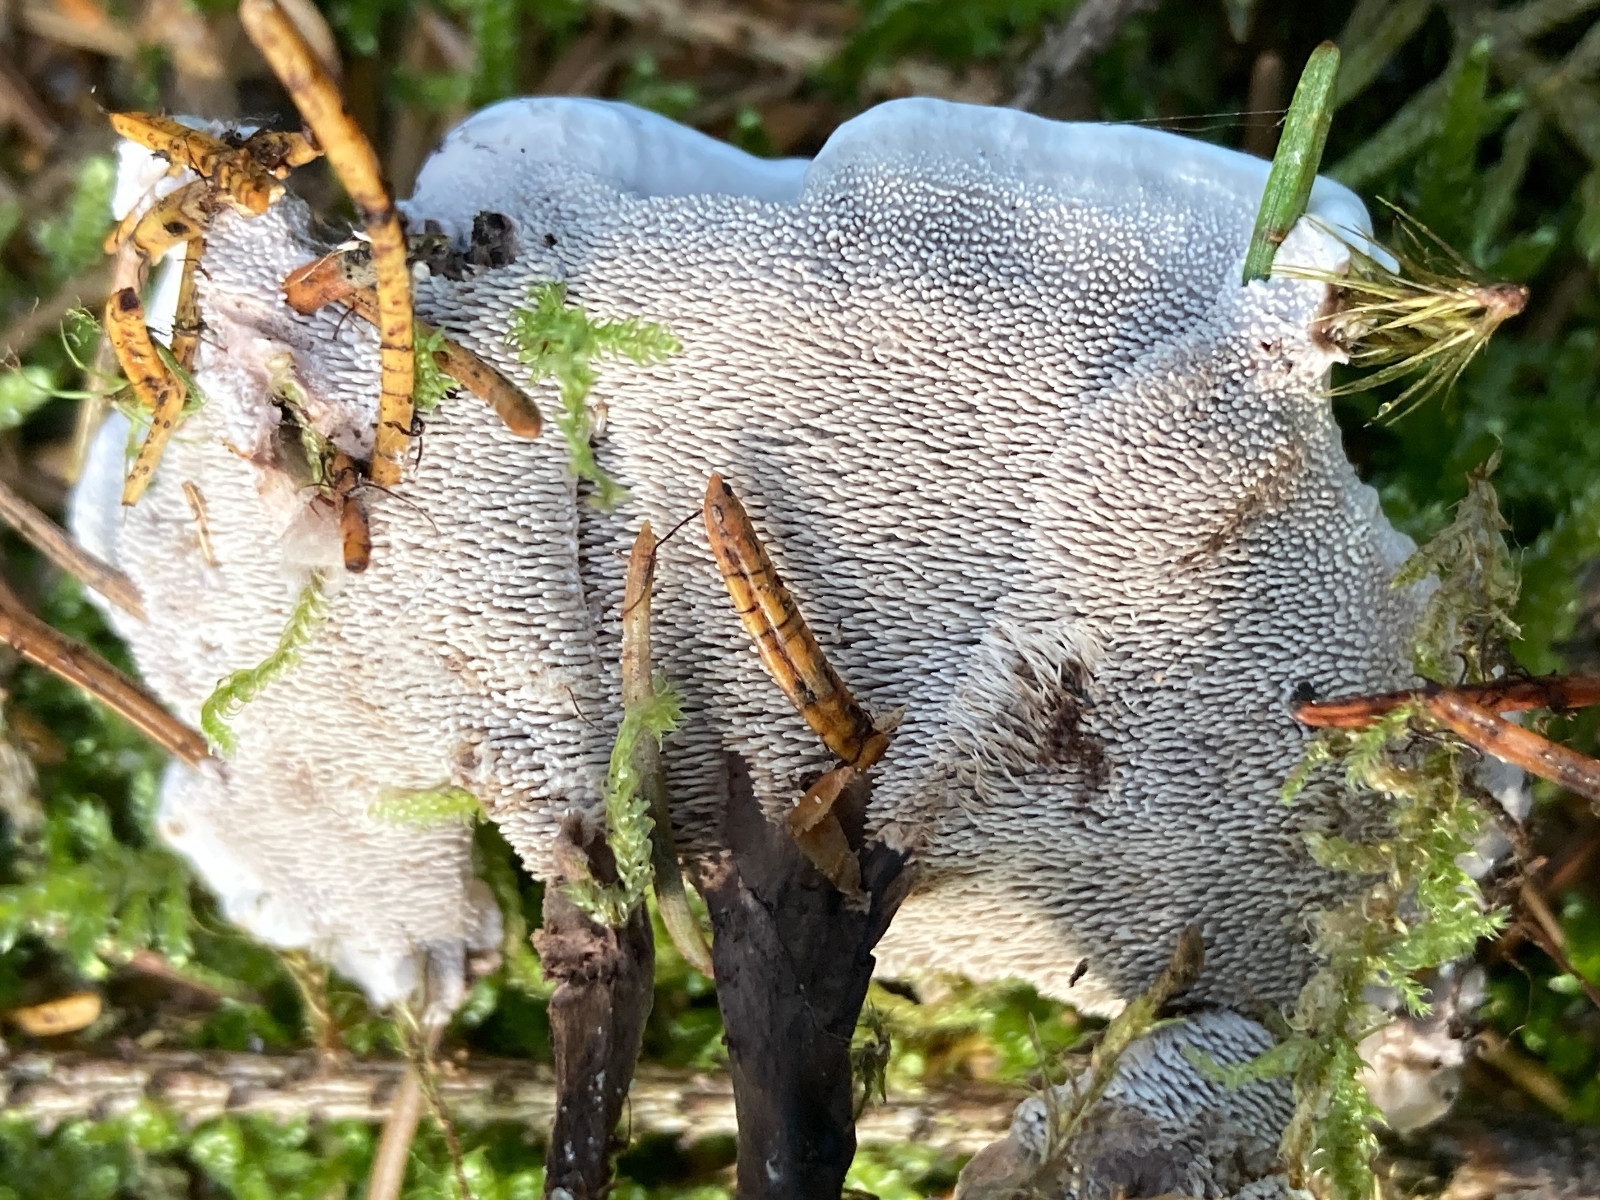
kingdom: Fungi
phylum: Basidiomycota
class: Agaricomycetes
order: Thelephorales
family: Thelephoraceae
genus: Phellodon
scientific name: Phellodon
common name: duftpigsvamp
